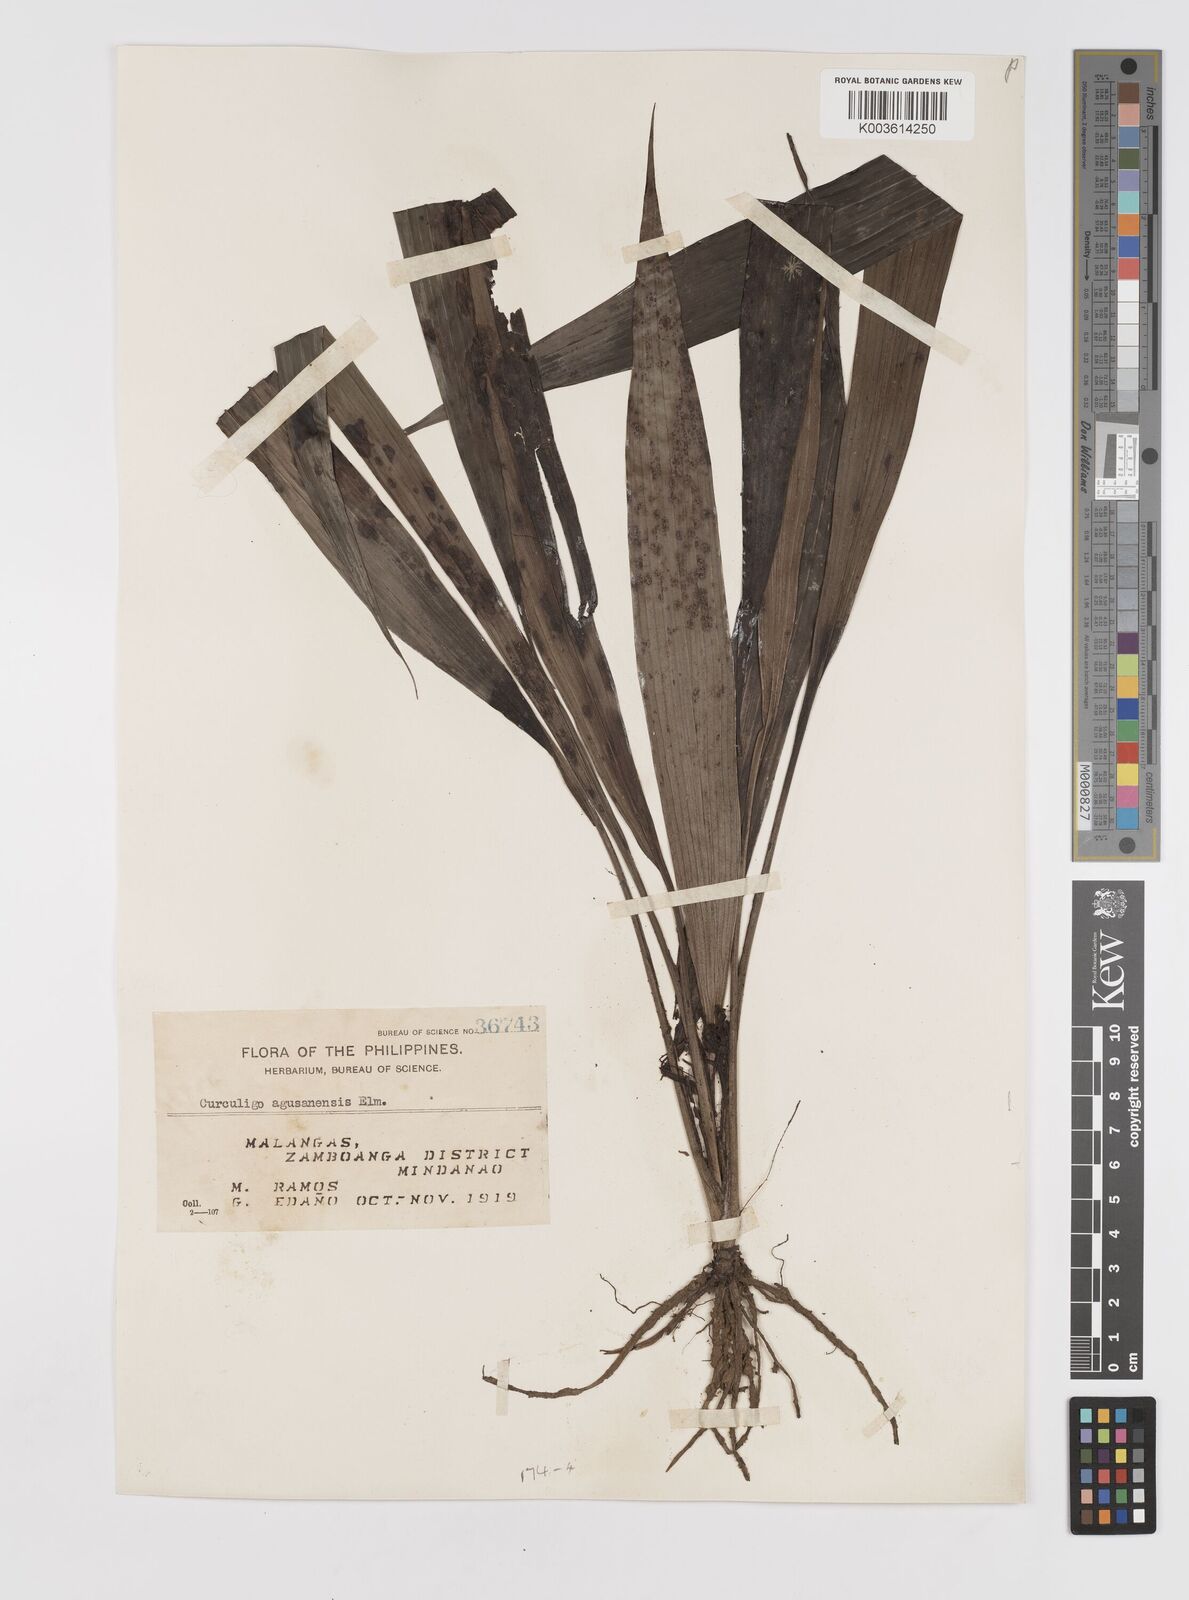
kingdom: Plantae
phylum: Tracheophyta
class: Liliopsida
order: Asparagales
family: Hypoxidaceae
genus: Curculigo
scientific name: Curculigo latifolia
